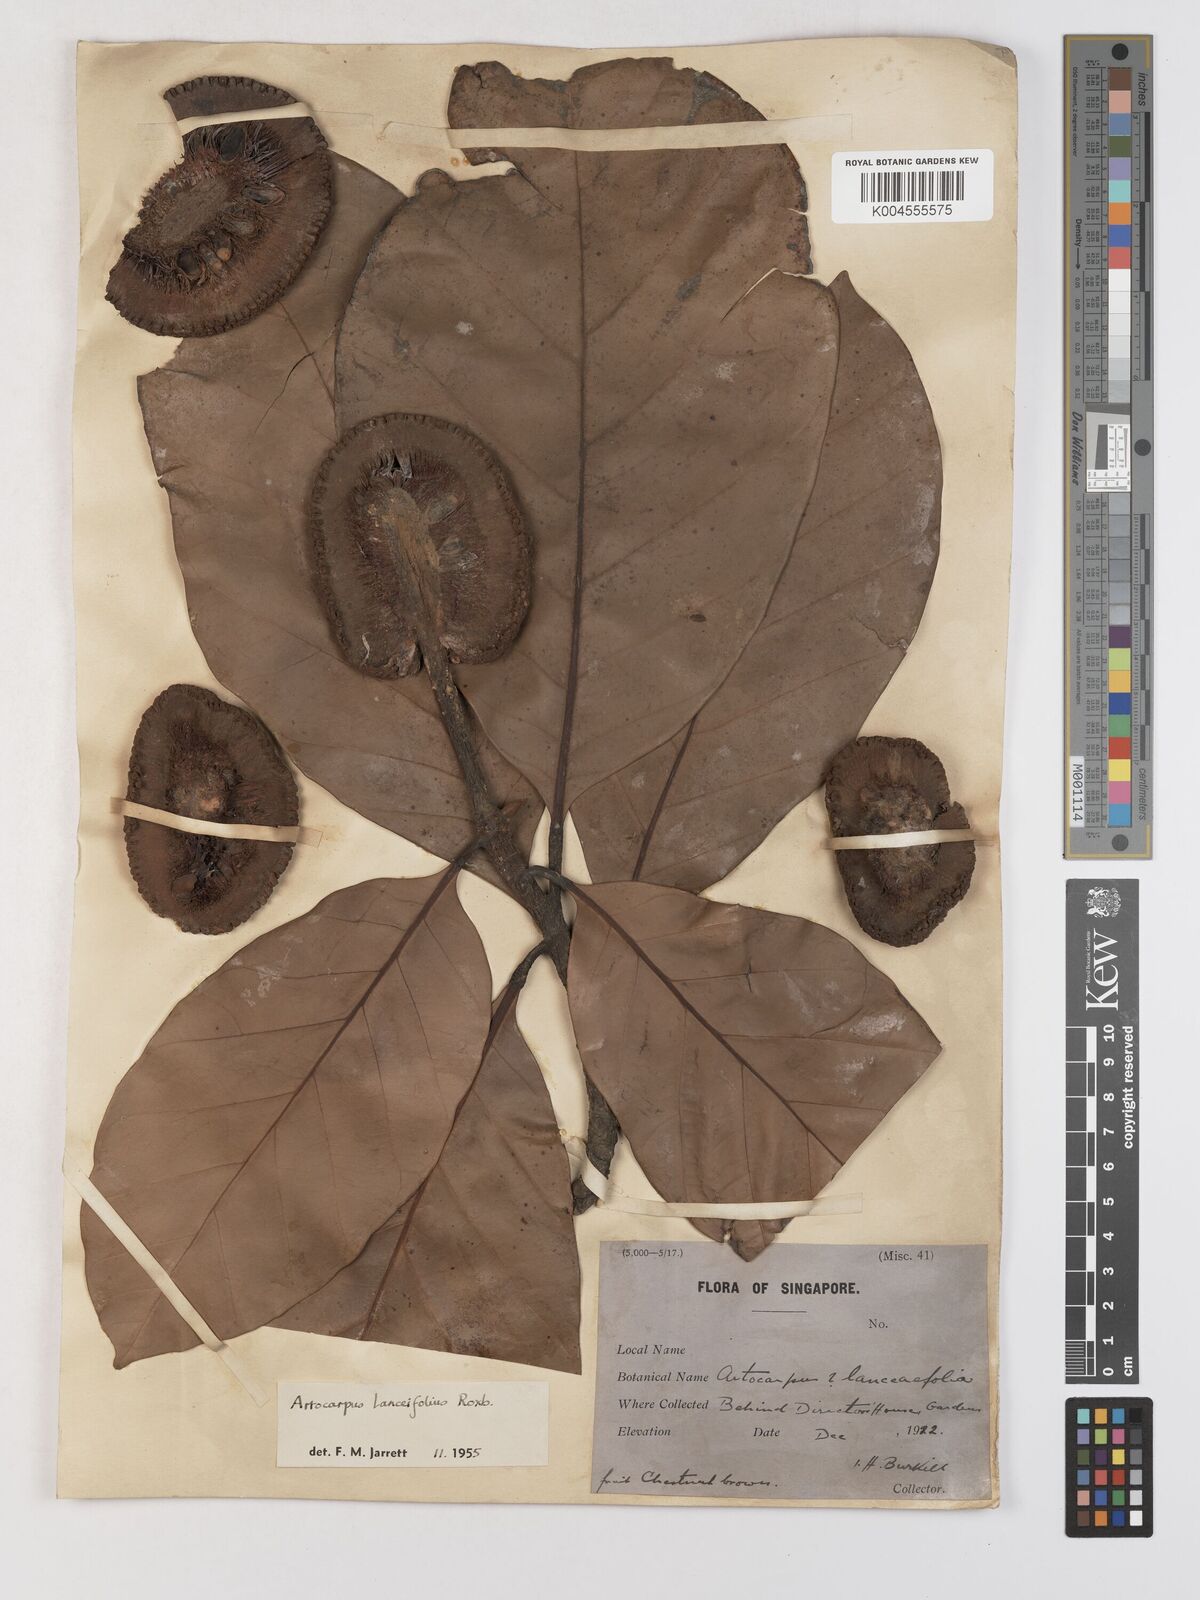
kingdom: Plantae
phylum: Tracheophyta
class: Magnoliopsida
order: Rosales
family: Moraceae
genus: Artocarpus
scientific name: Artocarpus lanceifolius
